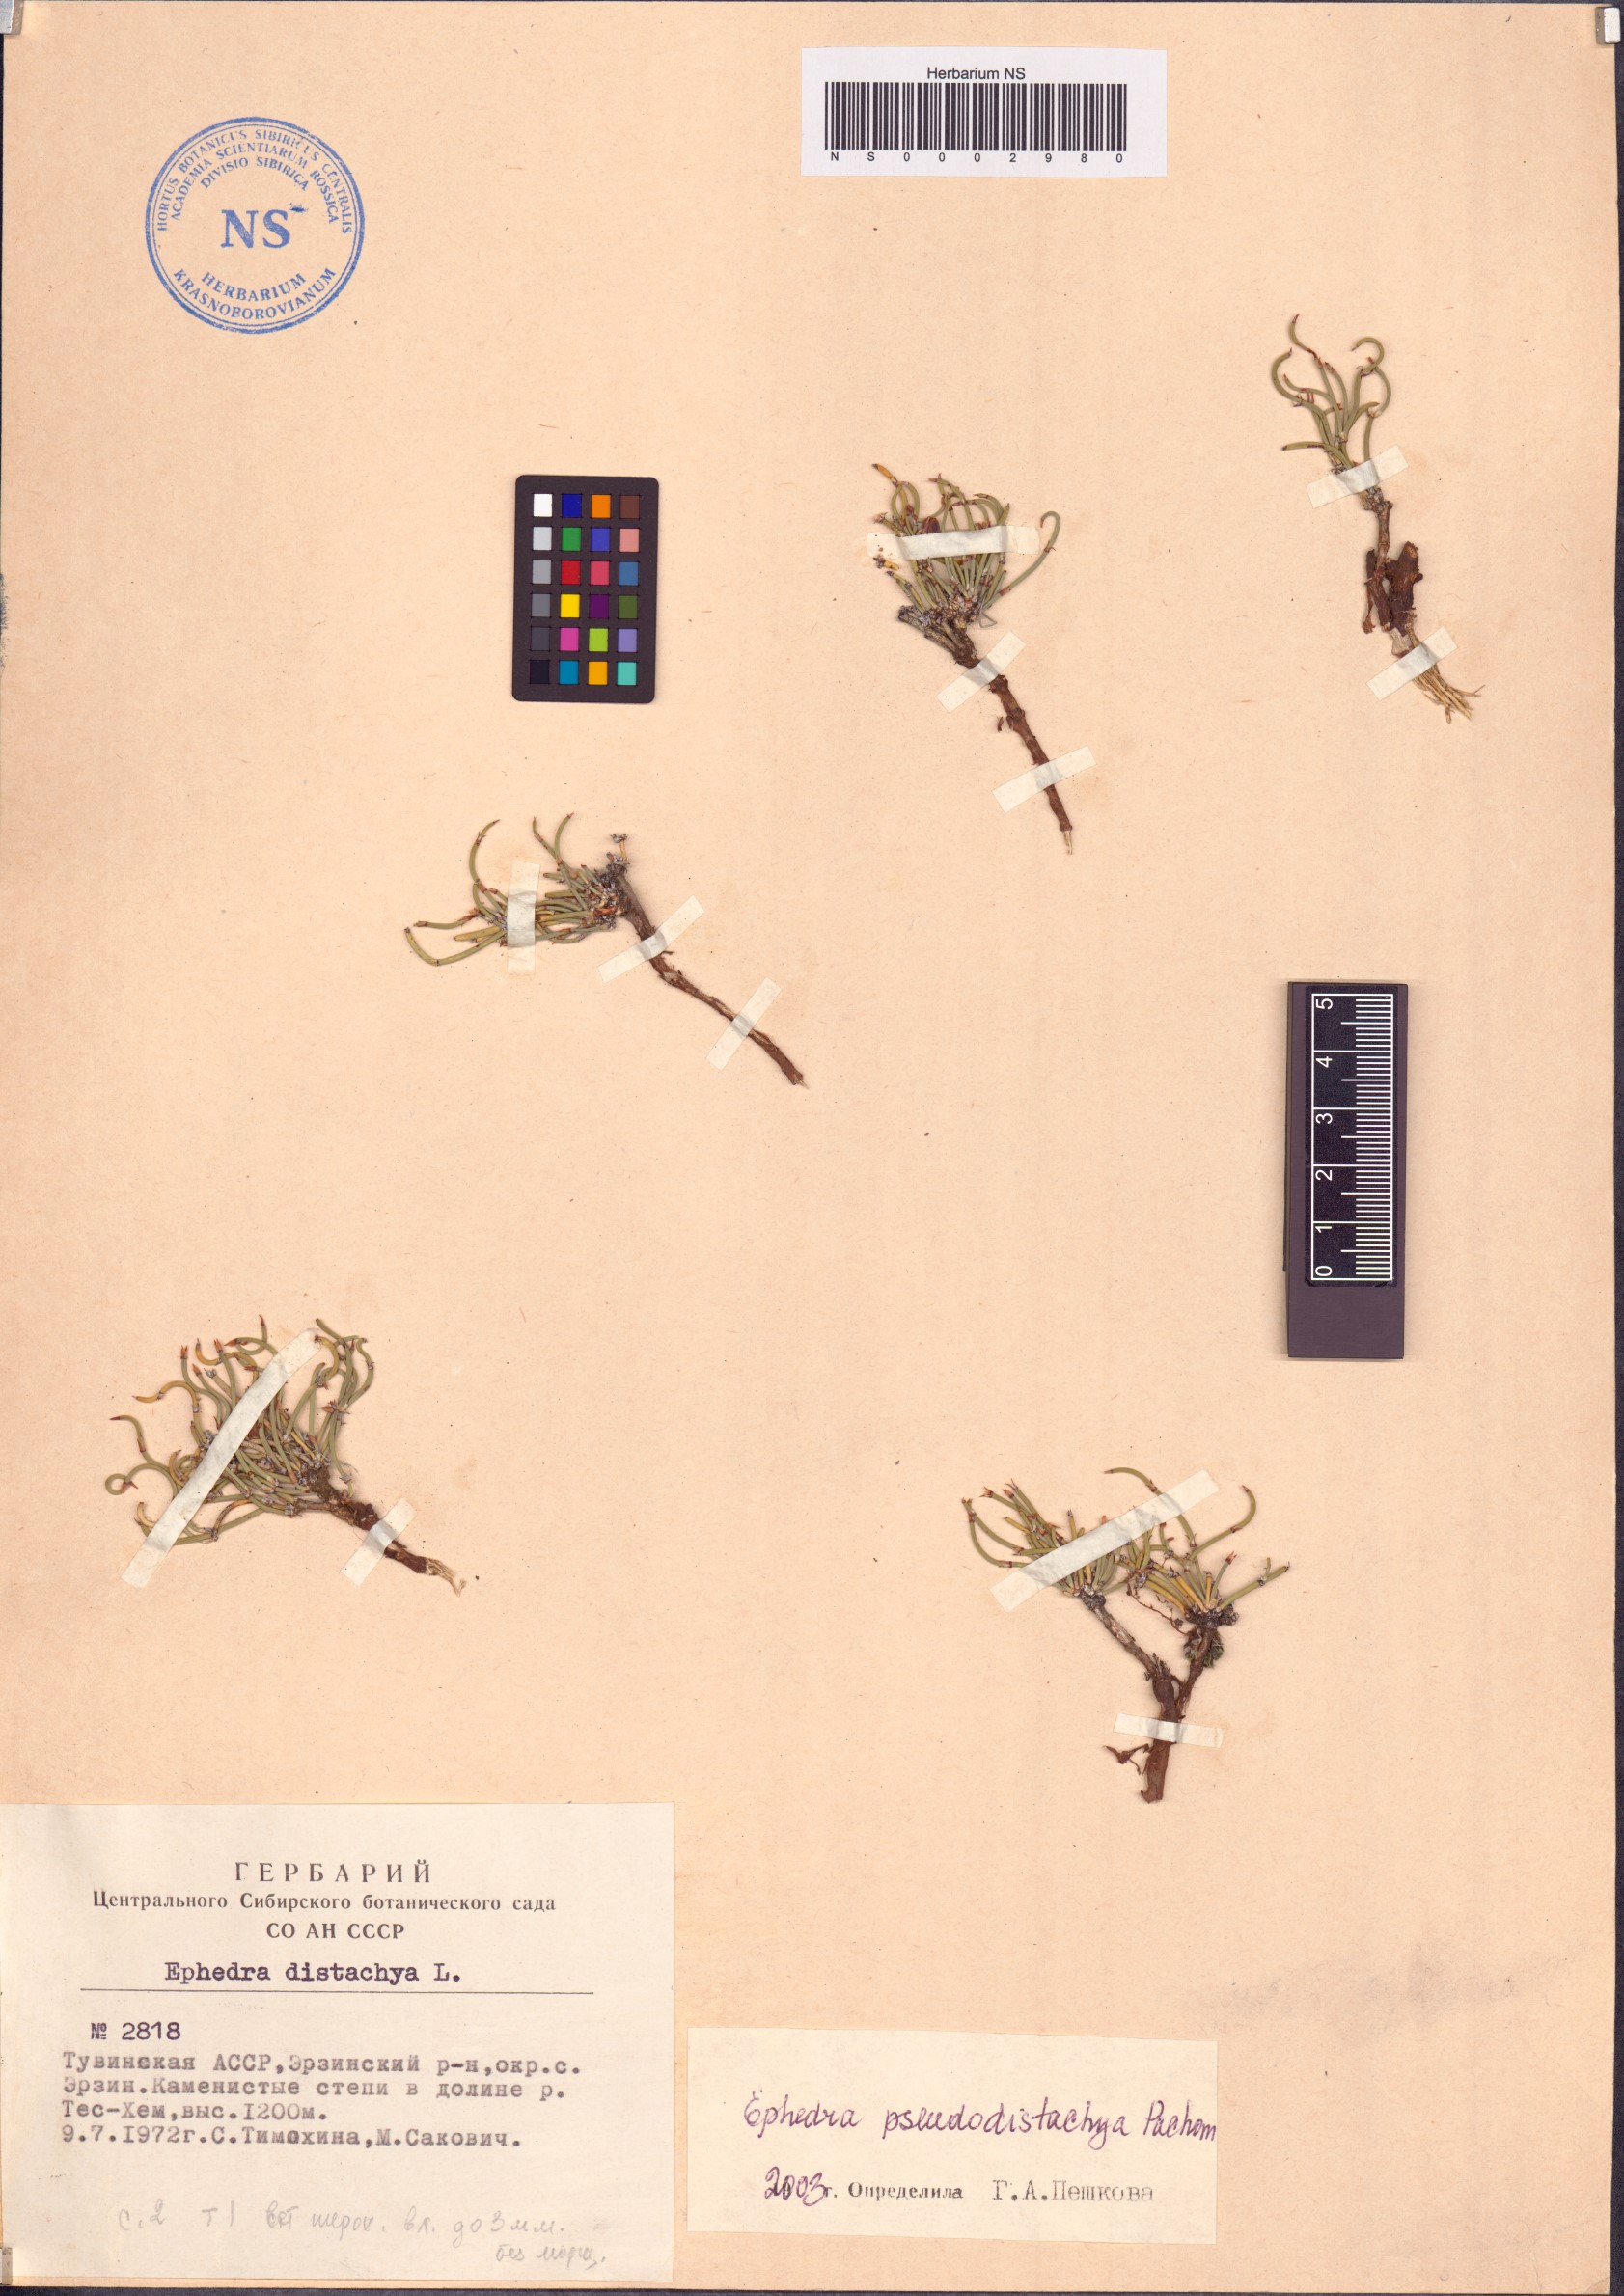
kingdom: Plantae
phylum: Tracheophyta
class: Gnetopsida
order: Ephedrales
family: Ephedraceae
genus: Ephedra
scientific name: Ephedra pseudodistachya
